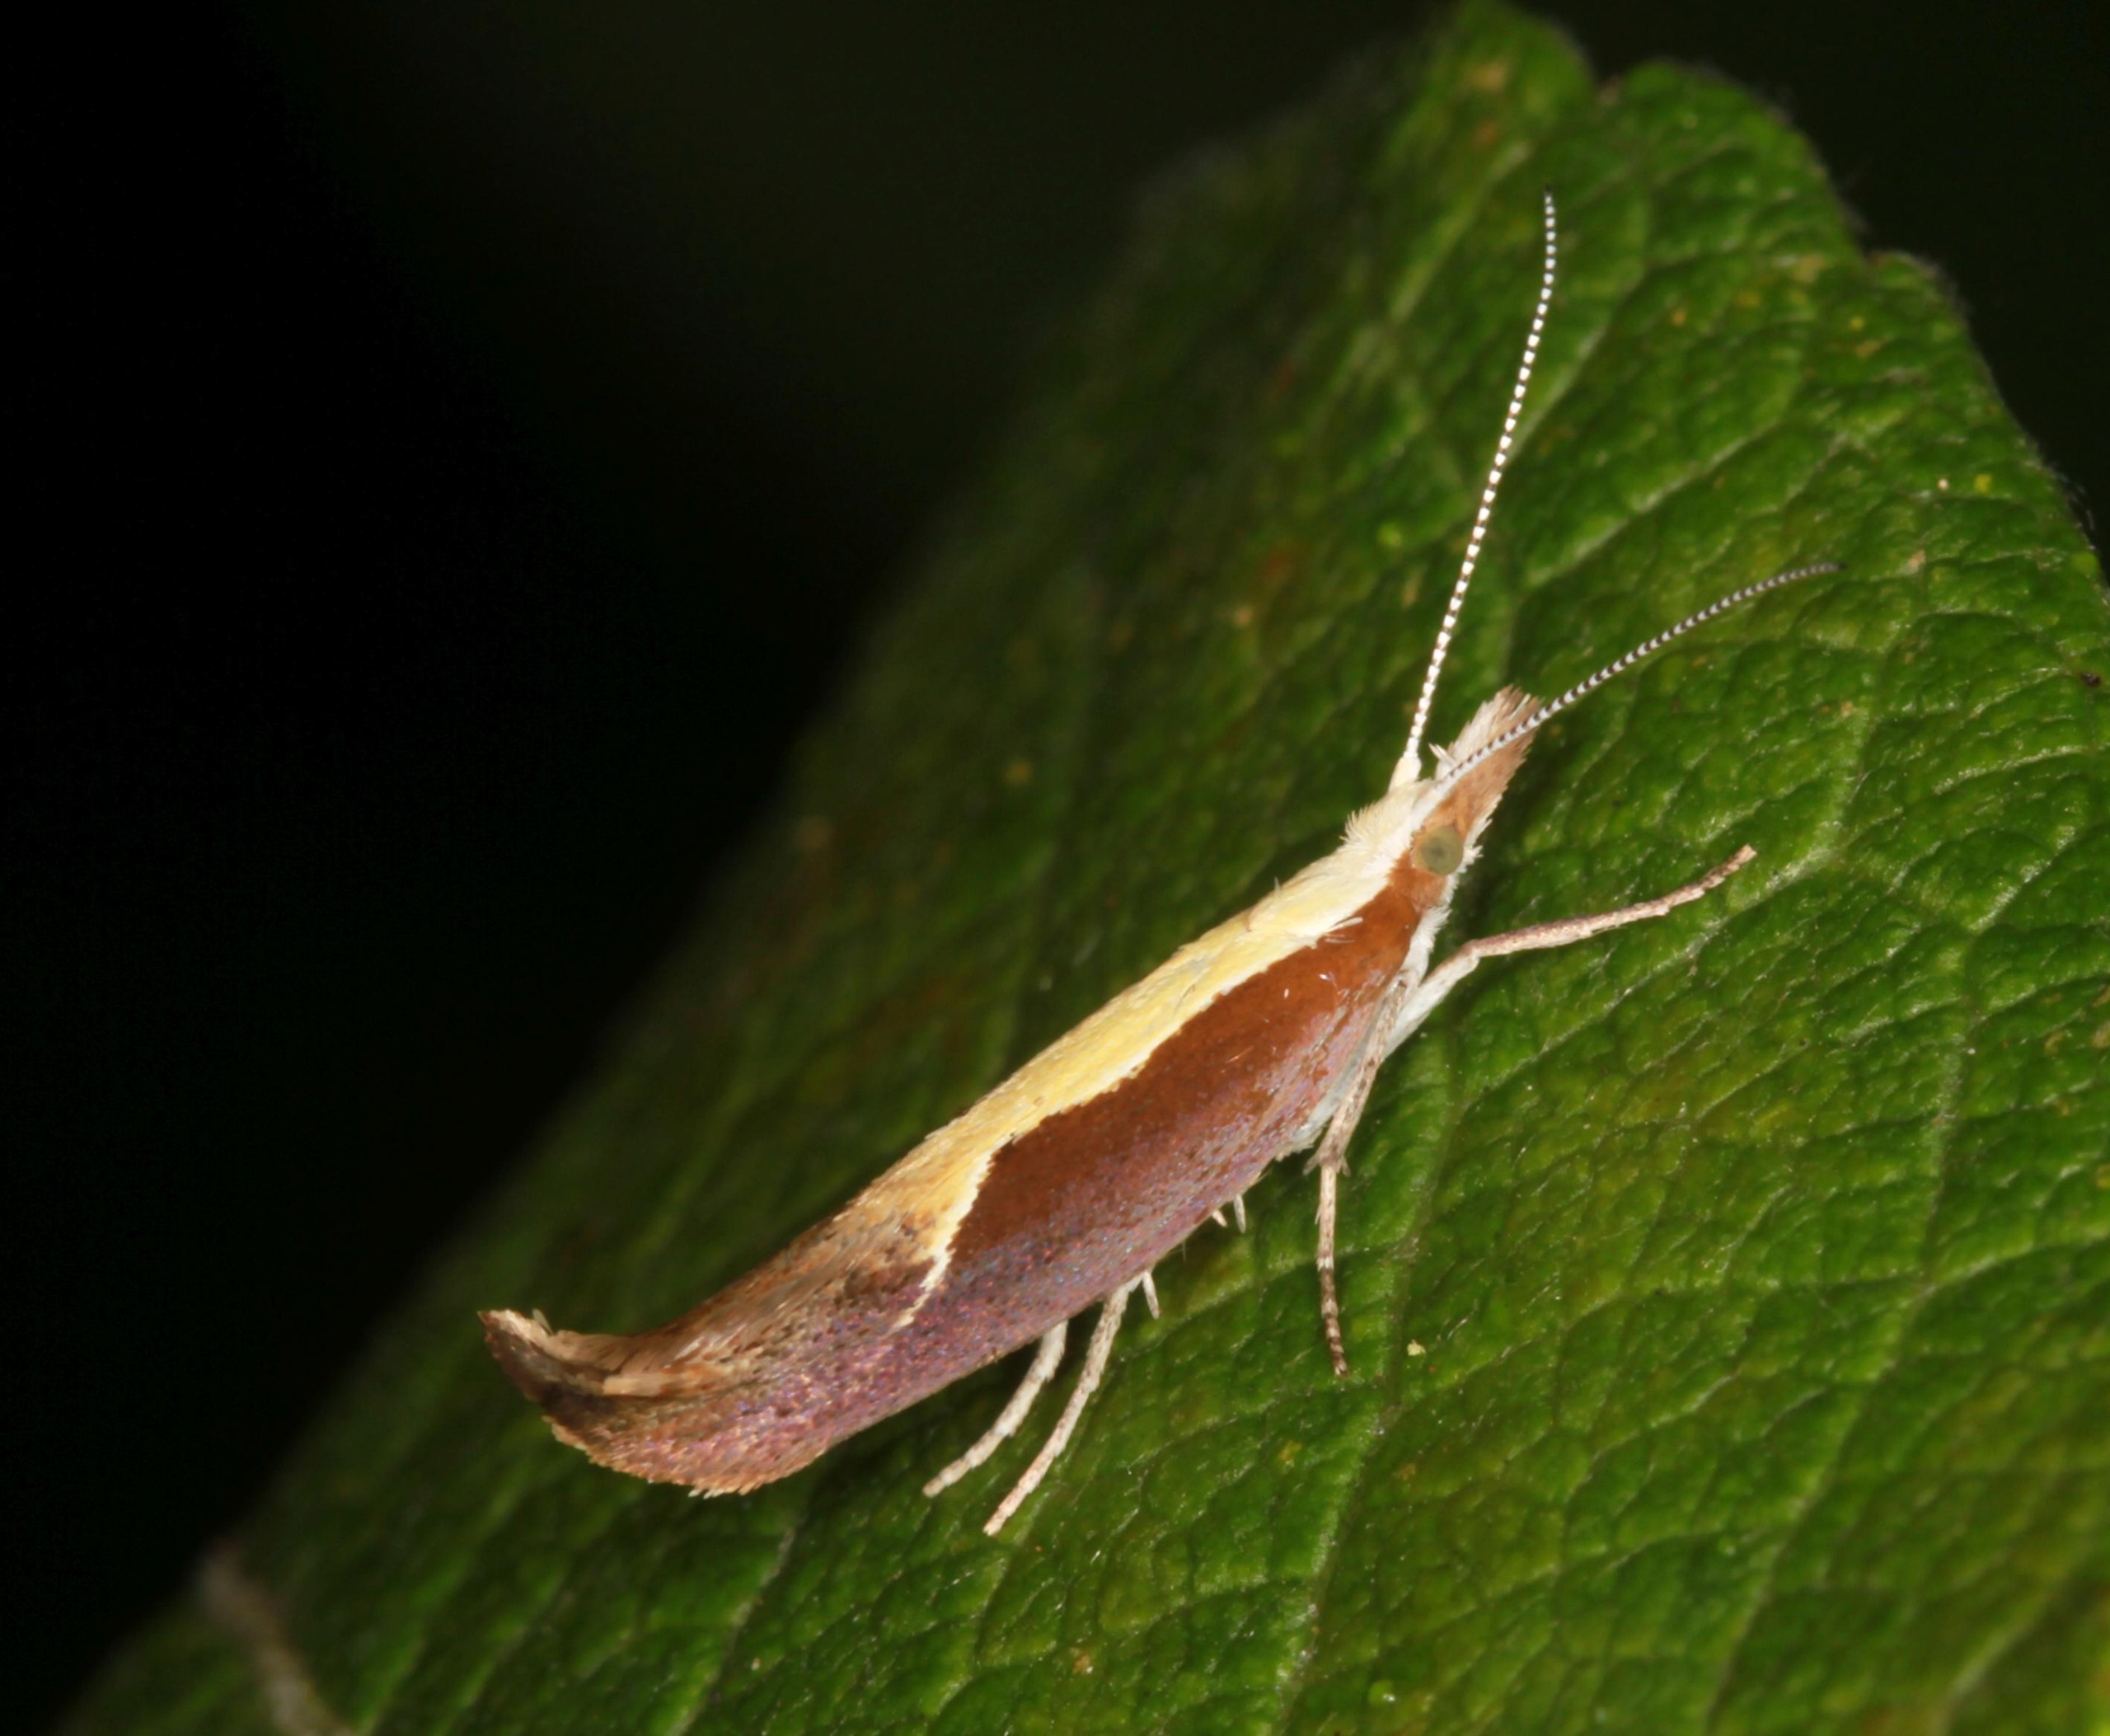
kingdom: Animalia
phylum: Arthropoda
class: Insecta
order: Lepidoptera
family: Ypsolophidae
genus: Ypsolopha
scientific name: Ypsolopha dentella
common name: Snudegedebladmøl
